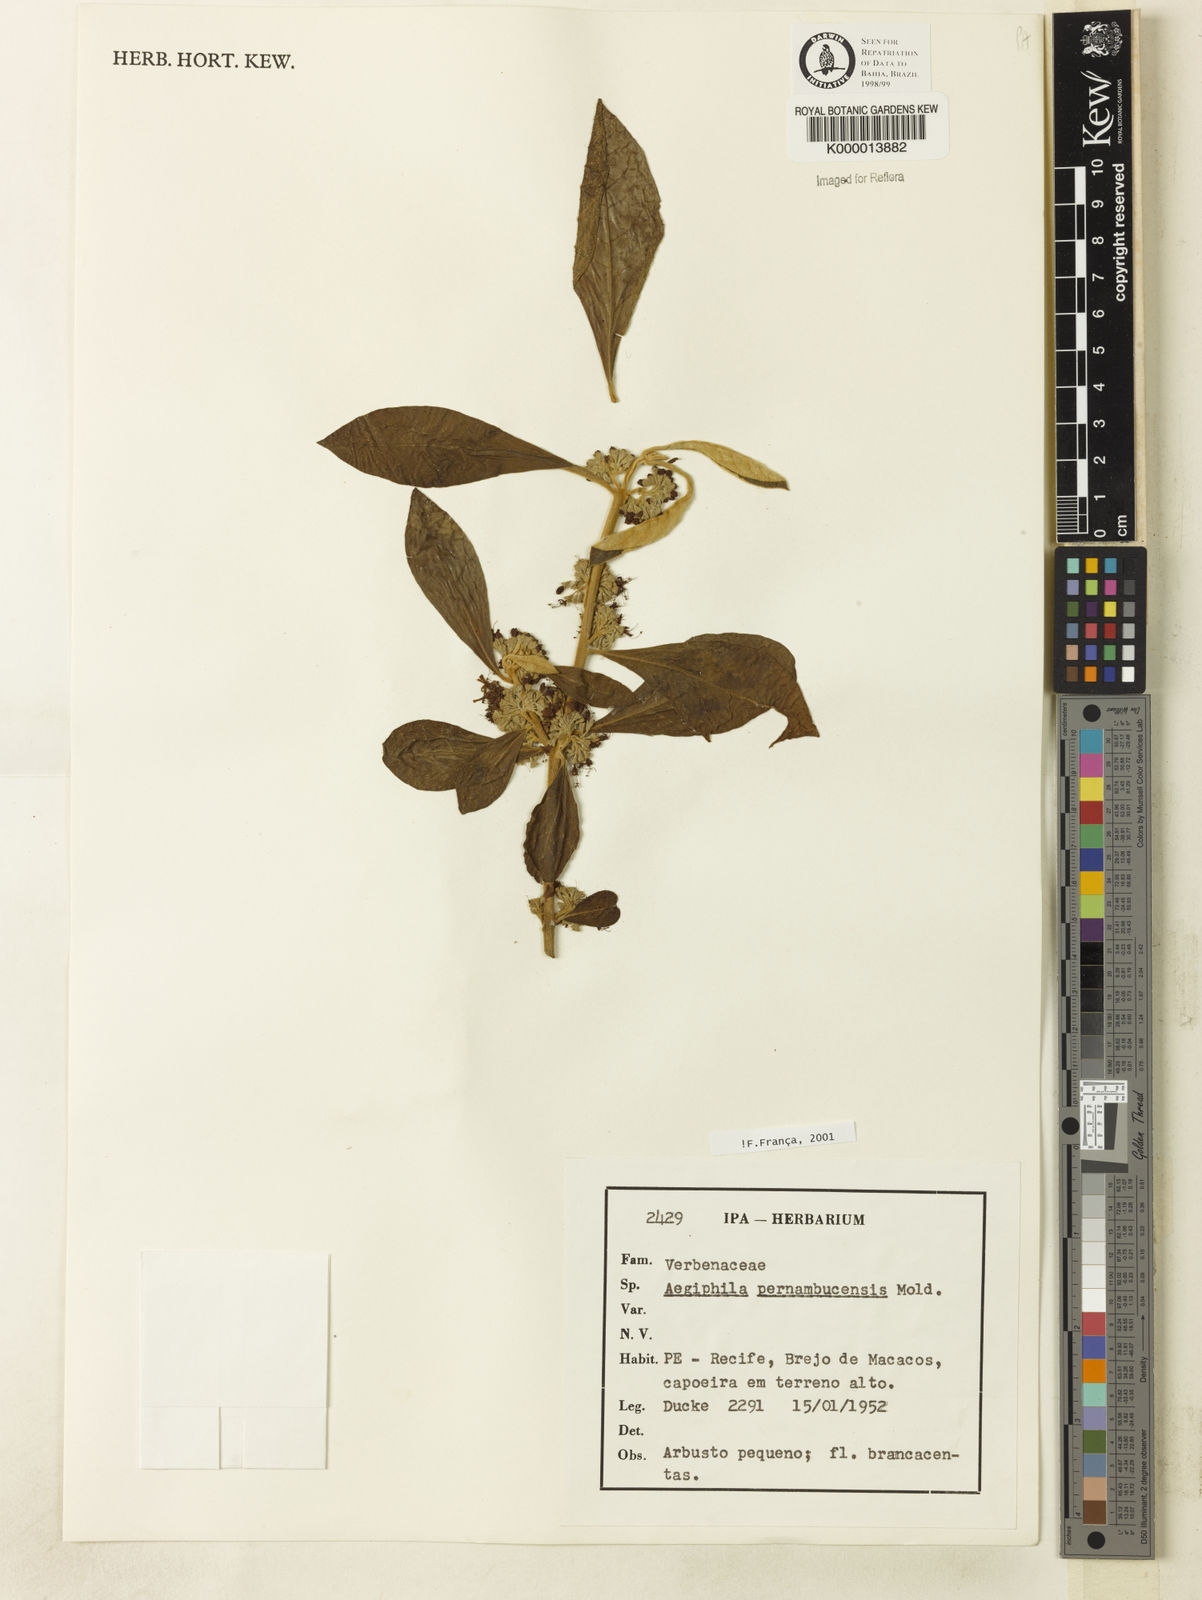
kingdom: Plantae
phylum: Tracheophyta
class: Magnoliopsida
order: Lamiales
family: Lamiaceae
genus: Aegiphila
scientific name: Aegiphila pernambucensis
